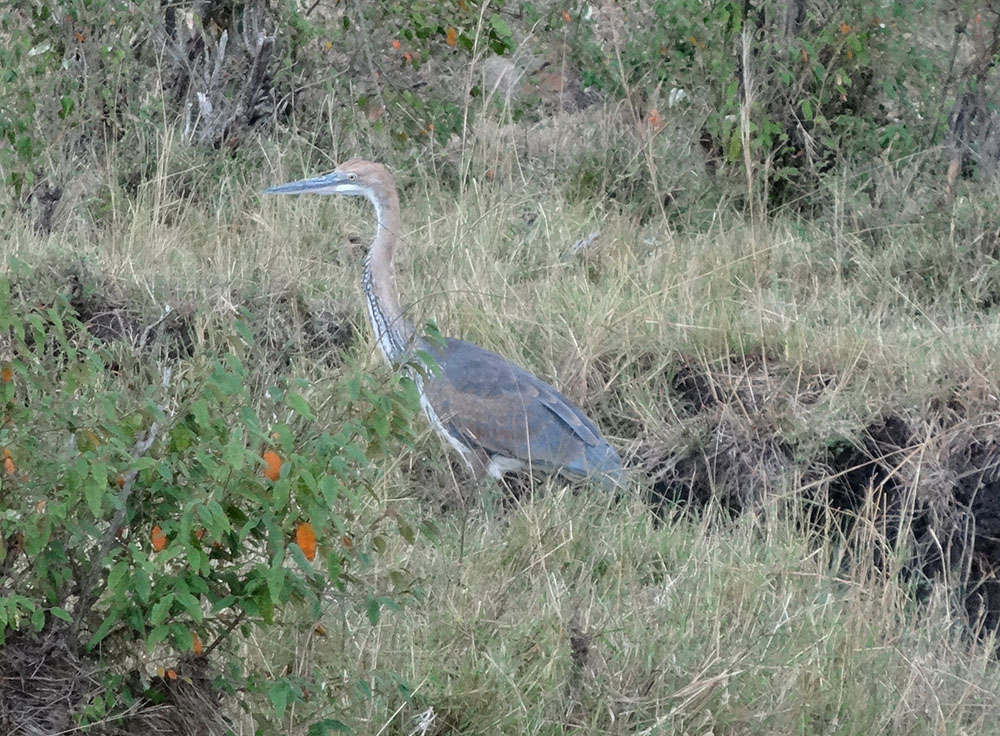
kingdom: Animalia
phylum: Chordata
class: Aves
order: Pelecaniformes
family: Ardeidae
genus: Ardea
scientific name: Ardea goliath
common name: Goliath heron
